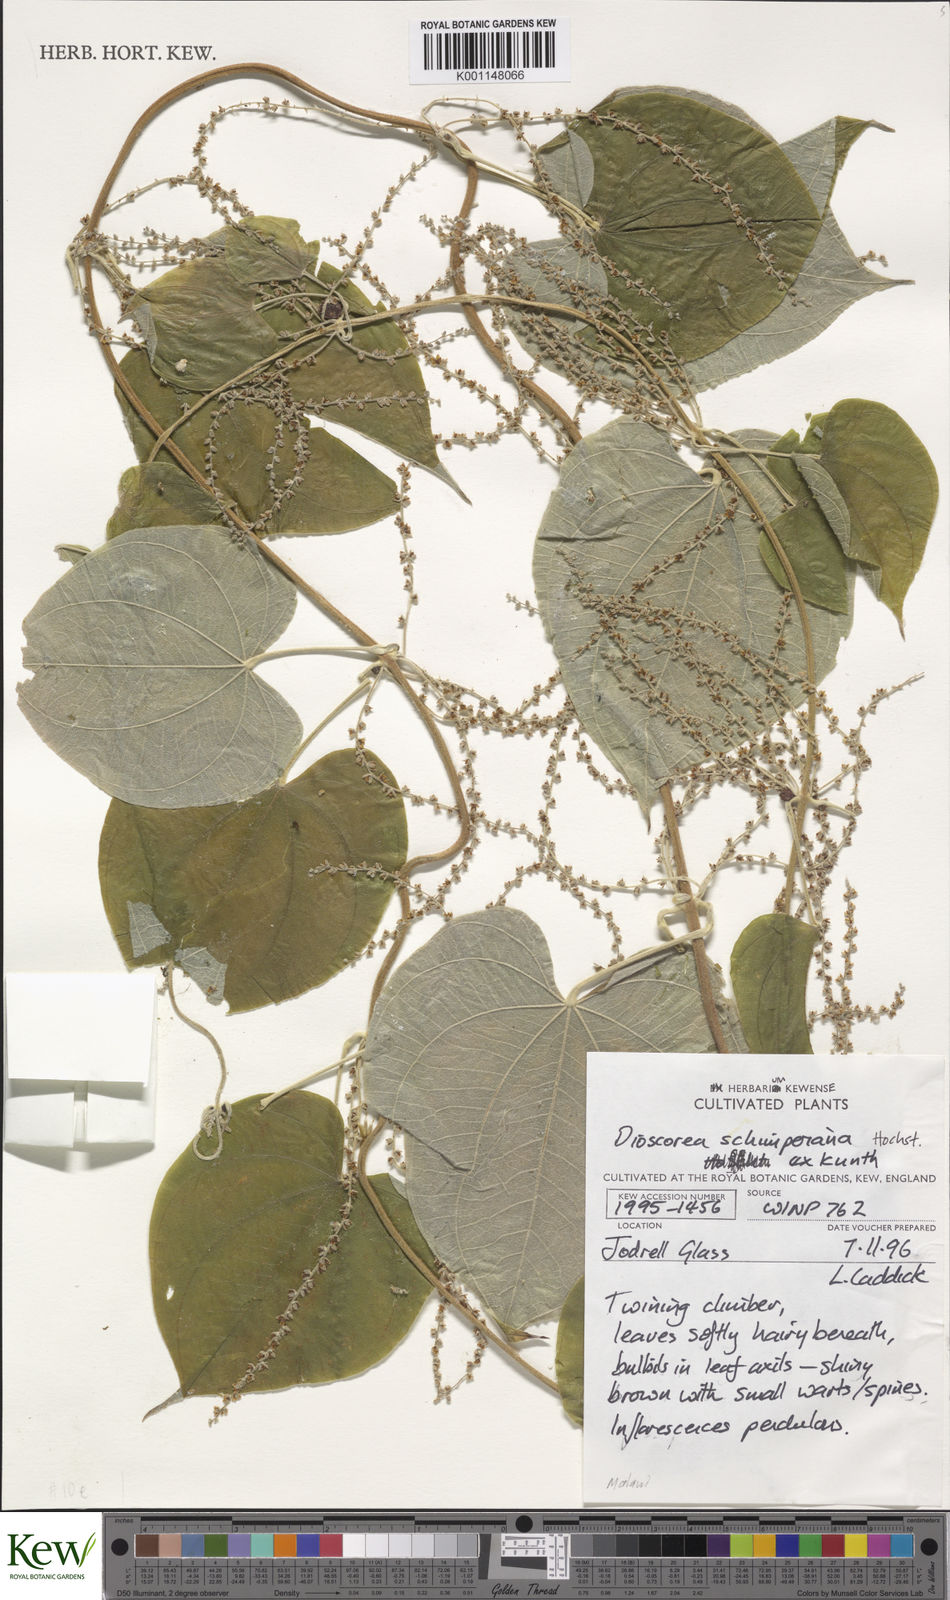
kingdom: Plantae
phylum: Tracheophyta
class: Liliopsida
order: Dioscoreales
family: Dioscoreaceae
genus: Dioscorea
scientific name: Dioscorea schimperiana
